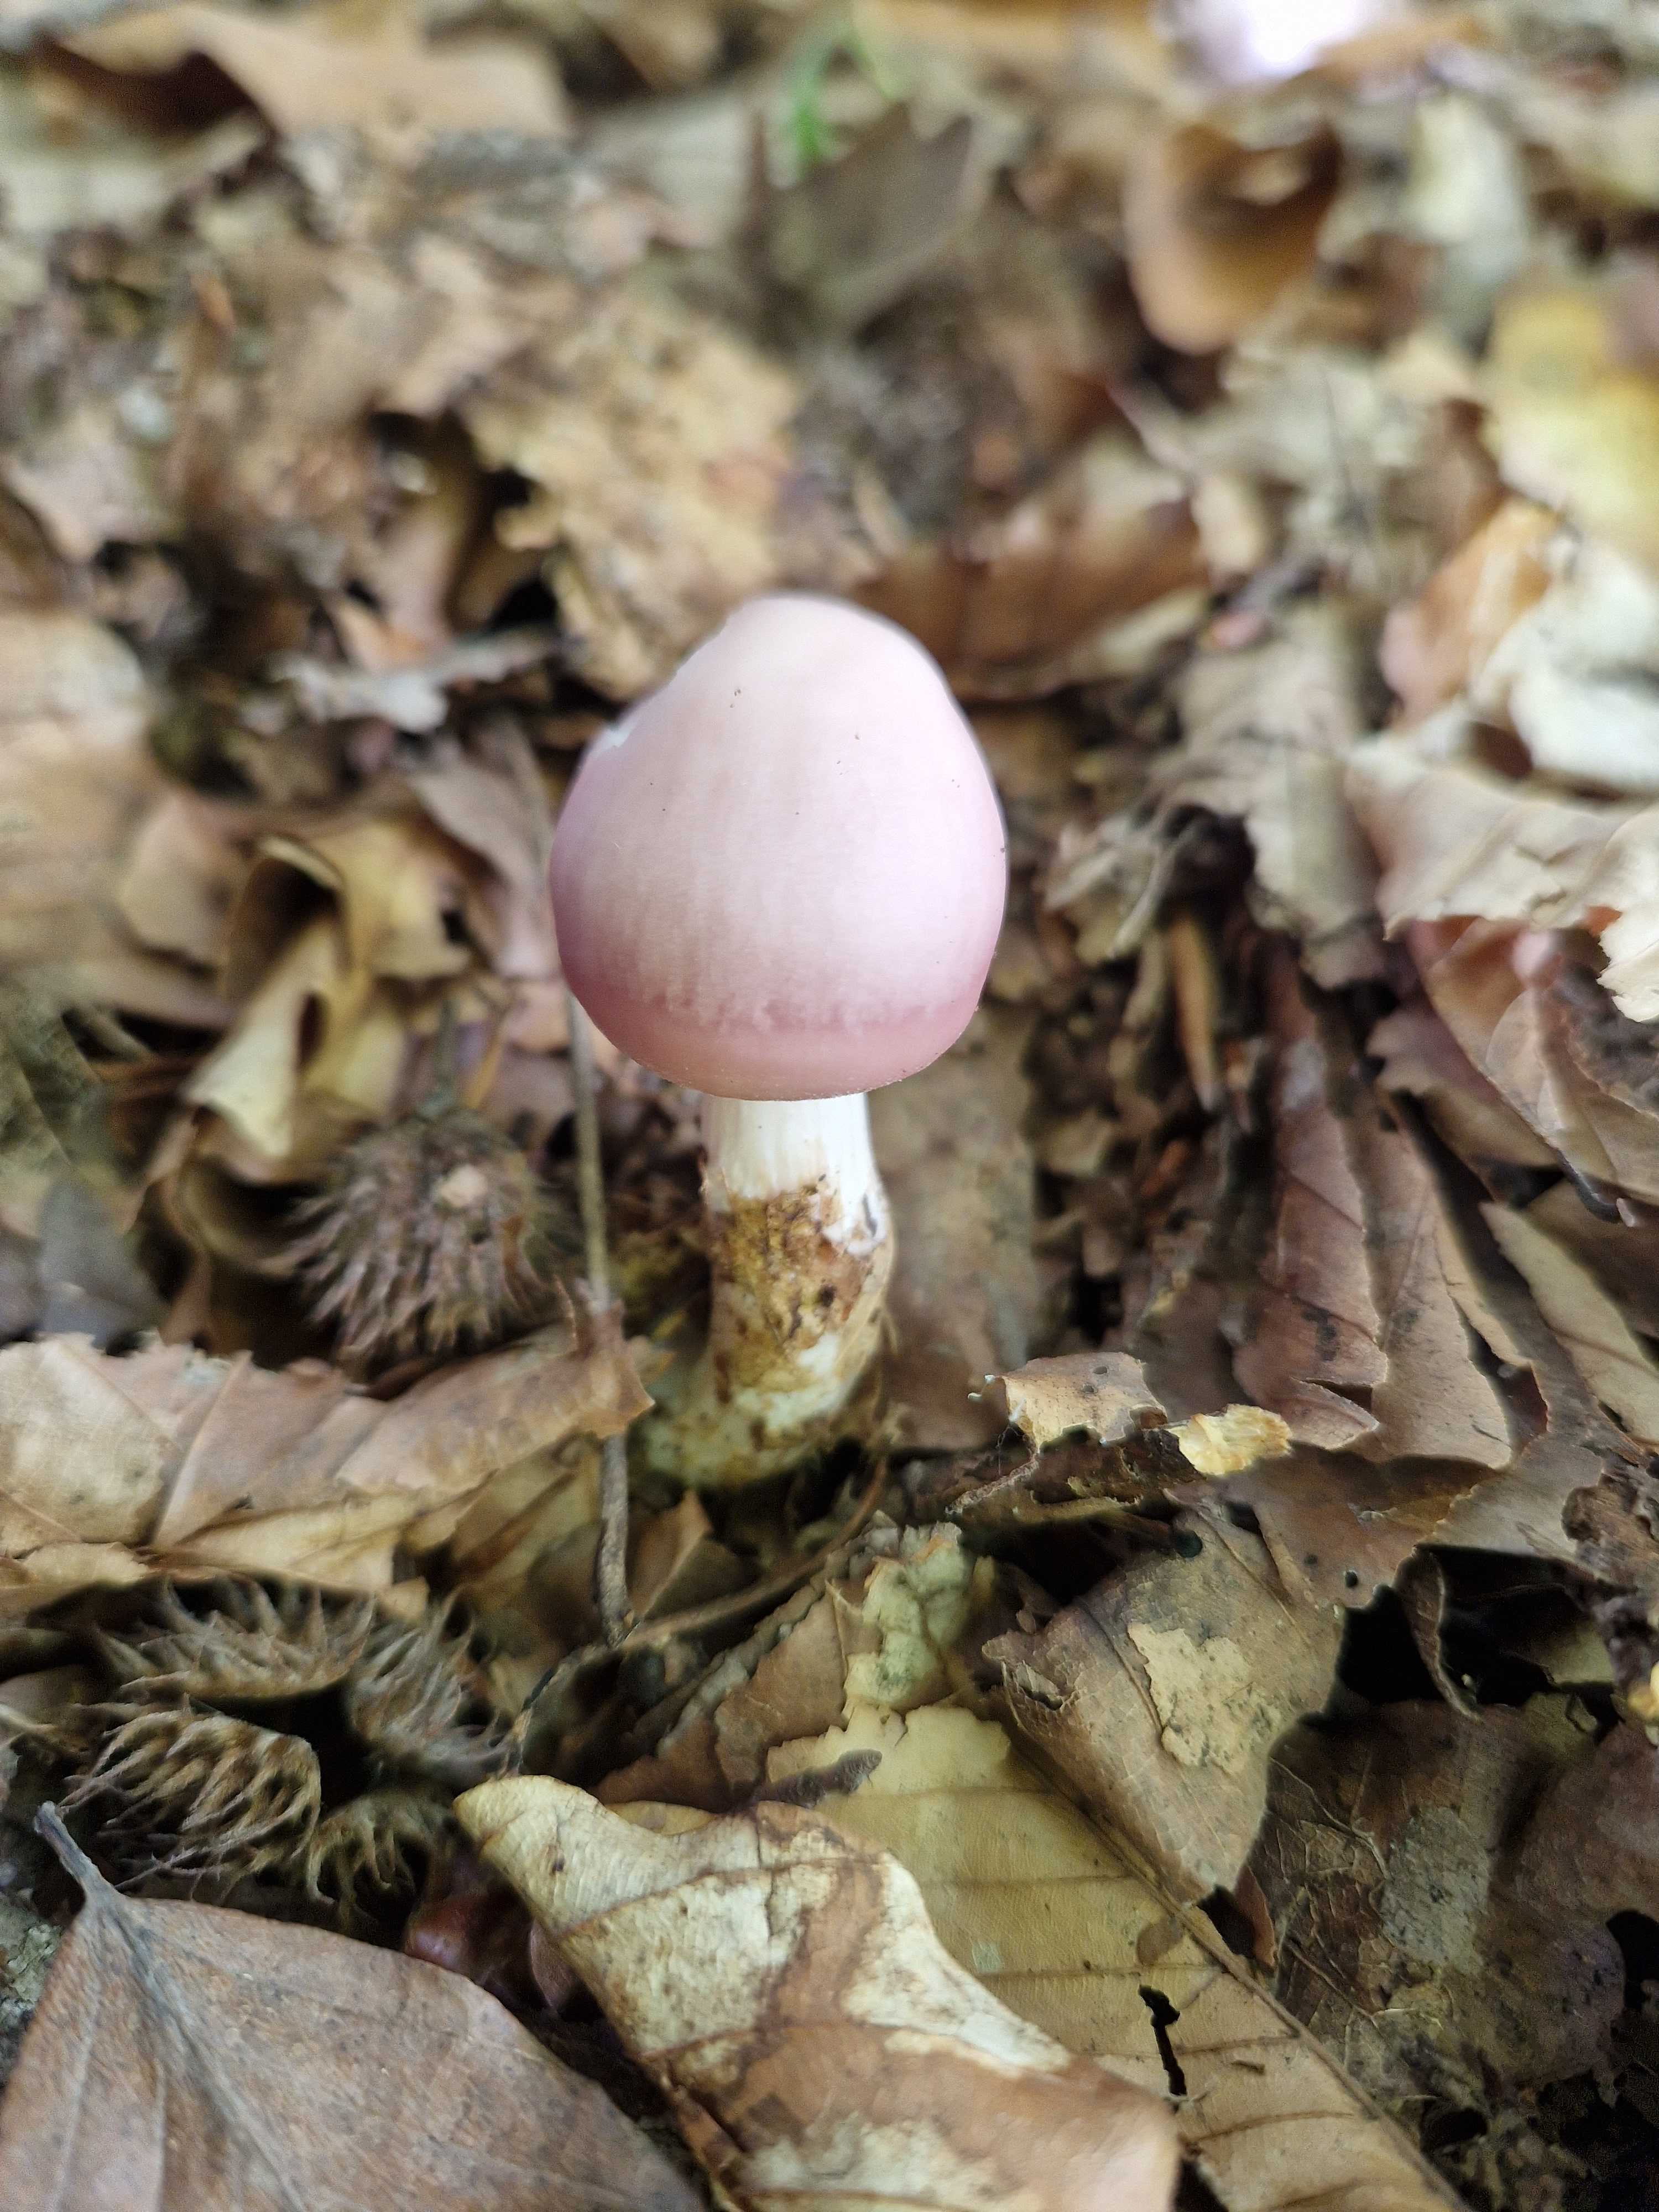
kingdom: Fungi
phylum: Basidiomycota
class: Agaricomycetes
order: Agaricales
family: Mycenaceae
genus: Mycena
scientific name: Mycena rosea
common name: rosa huesvamp
